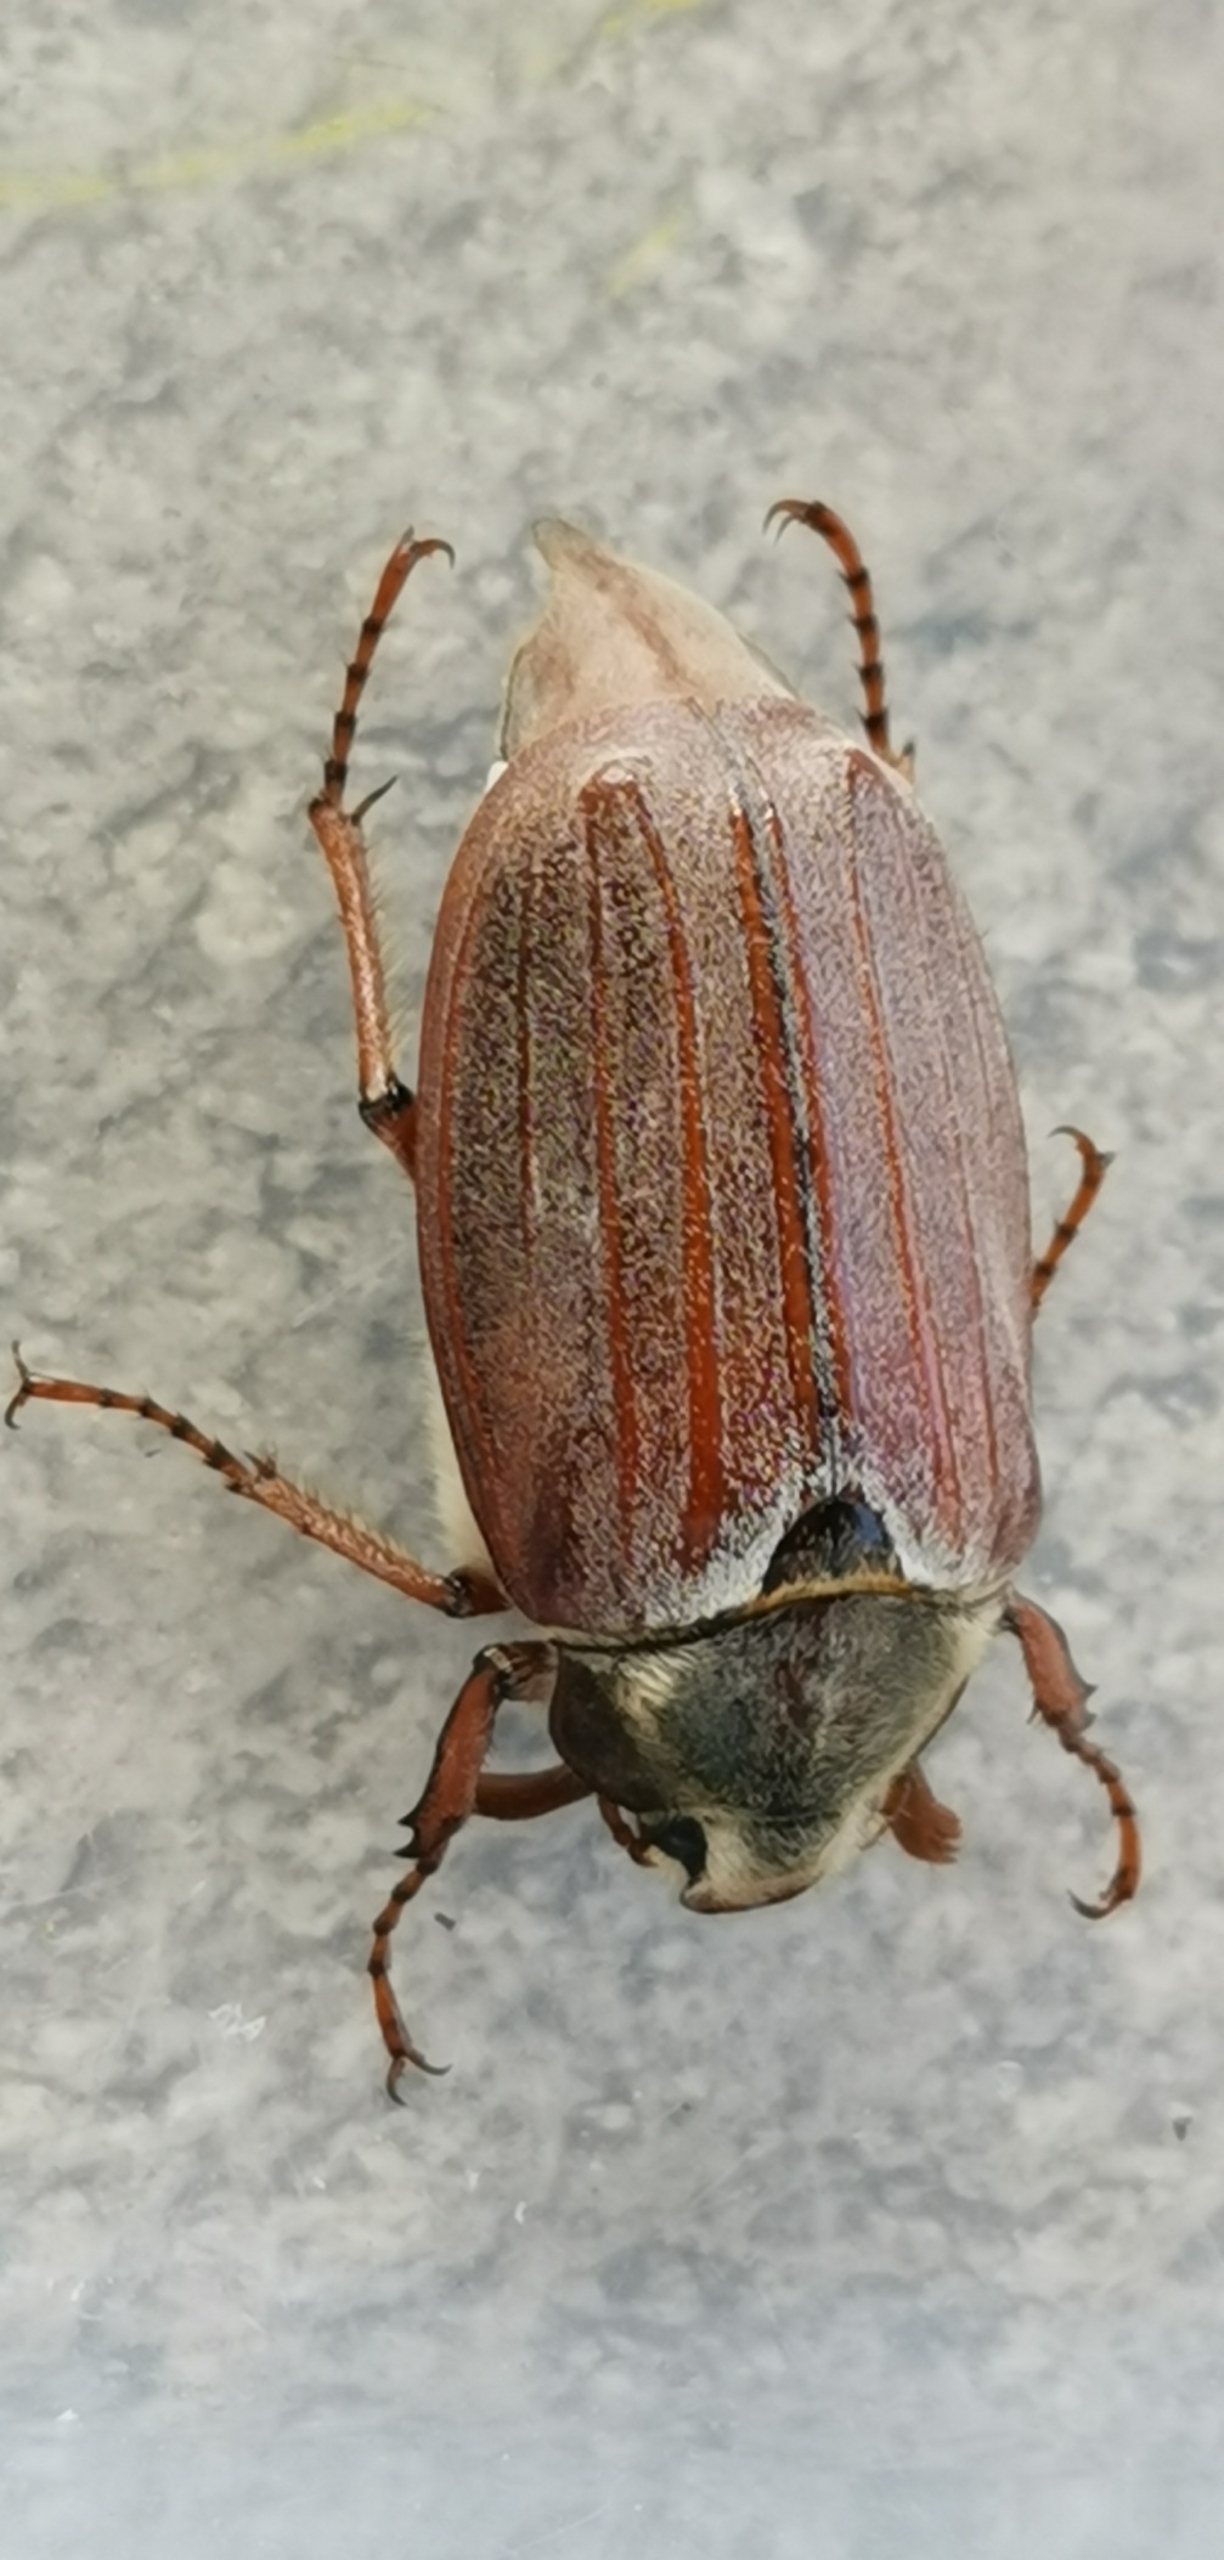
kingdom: Animalia
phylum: Arthropoda
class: Insecta
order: Coleoptera
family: Scarabaeidae
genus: Melolontha
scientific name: Melolontha melolontha
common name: Almindelig oldenborre
